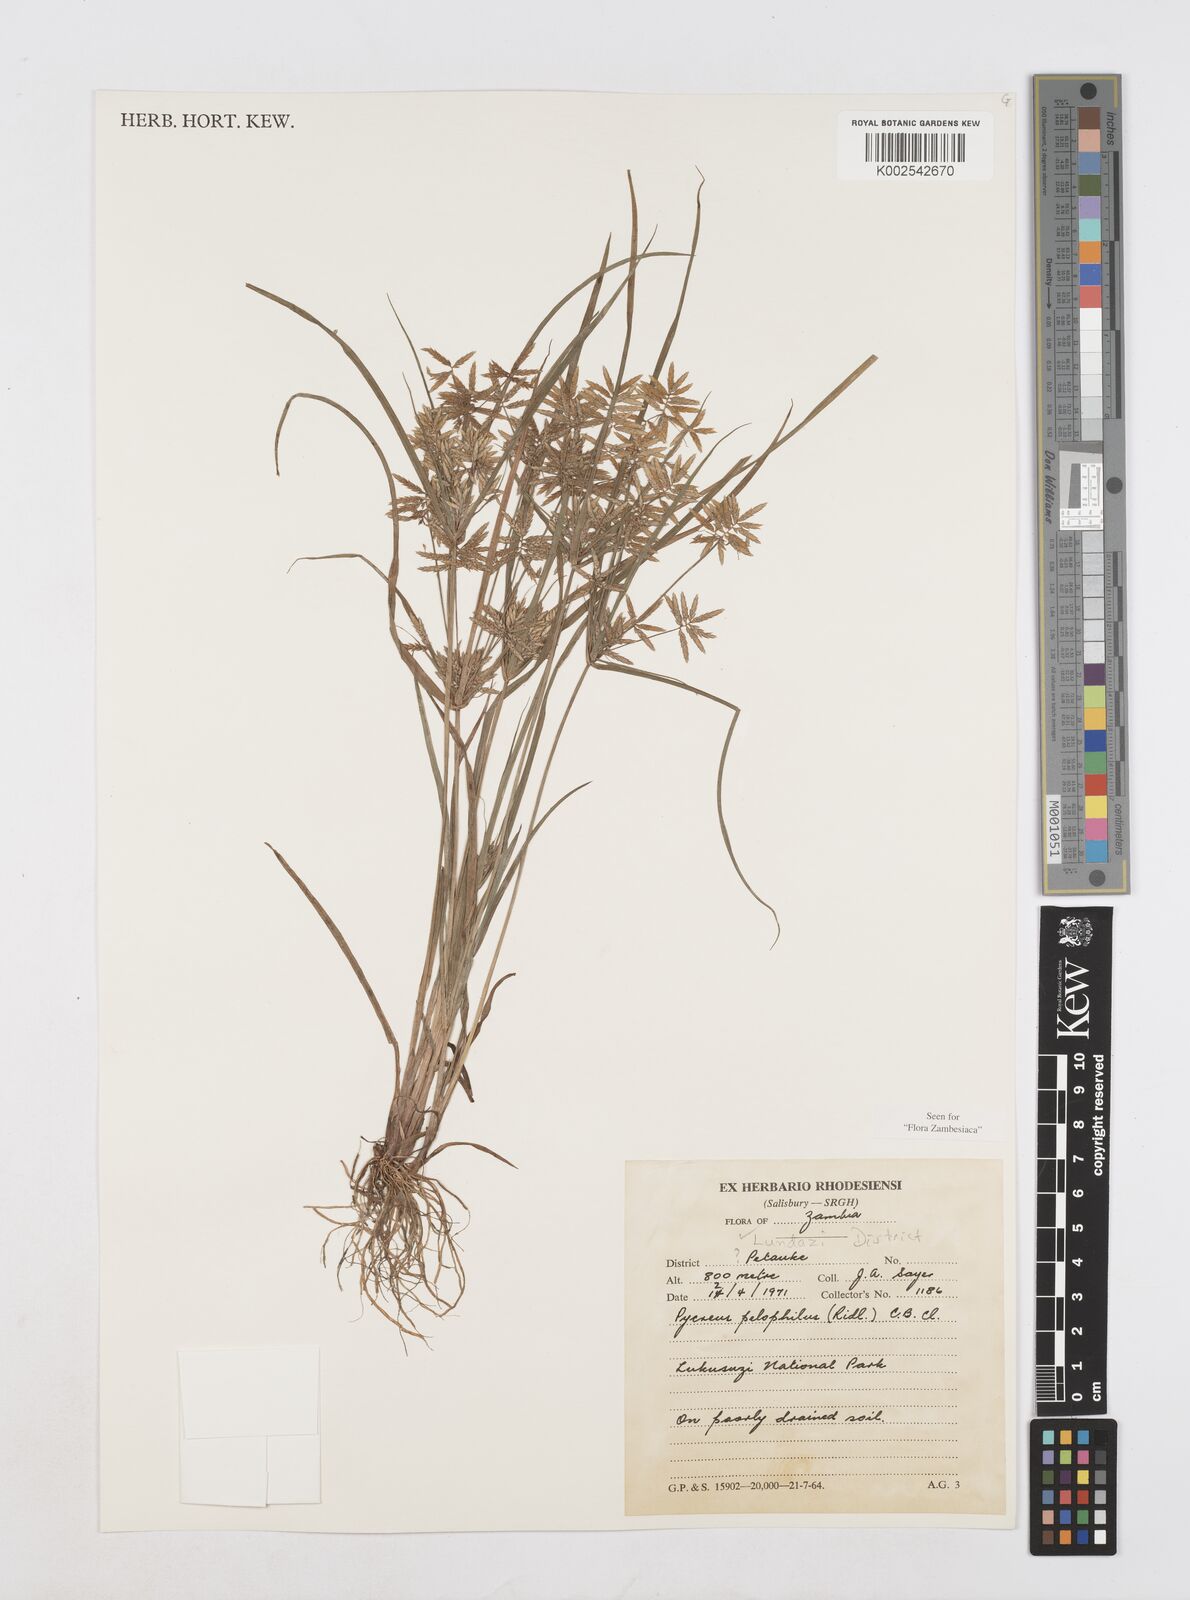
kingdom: Plantae
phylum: Tracheophyta
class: Liliopsida
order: Poales
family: Cyperaceae
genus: Cyperus
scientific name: Cyperus pelophilus
